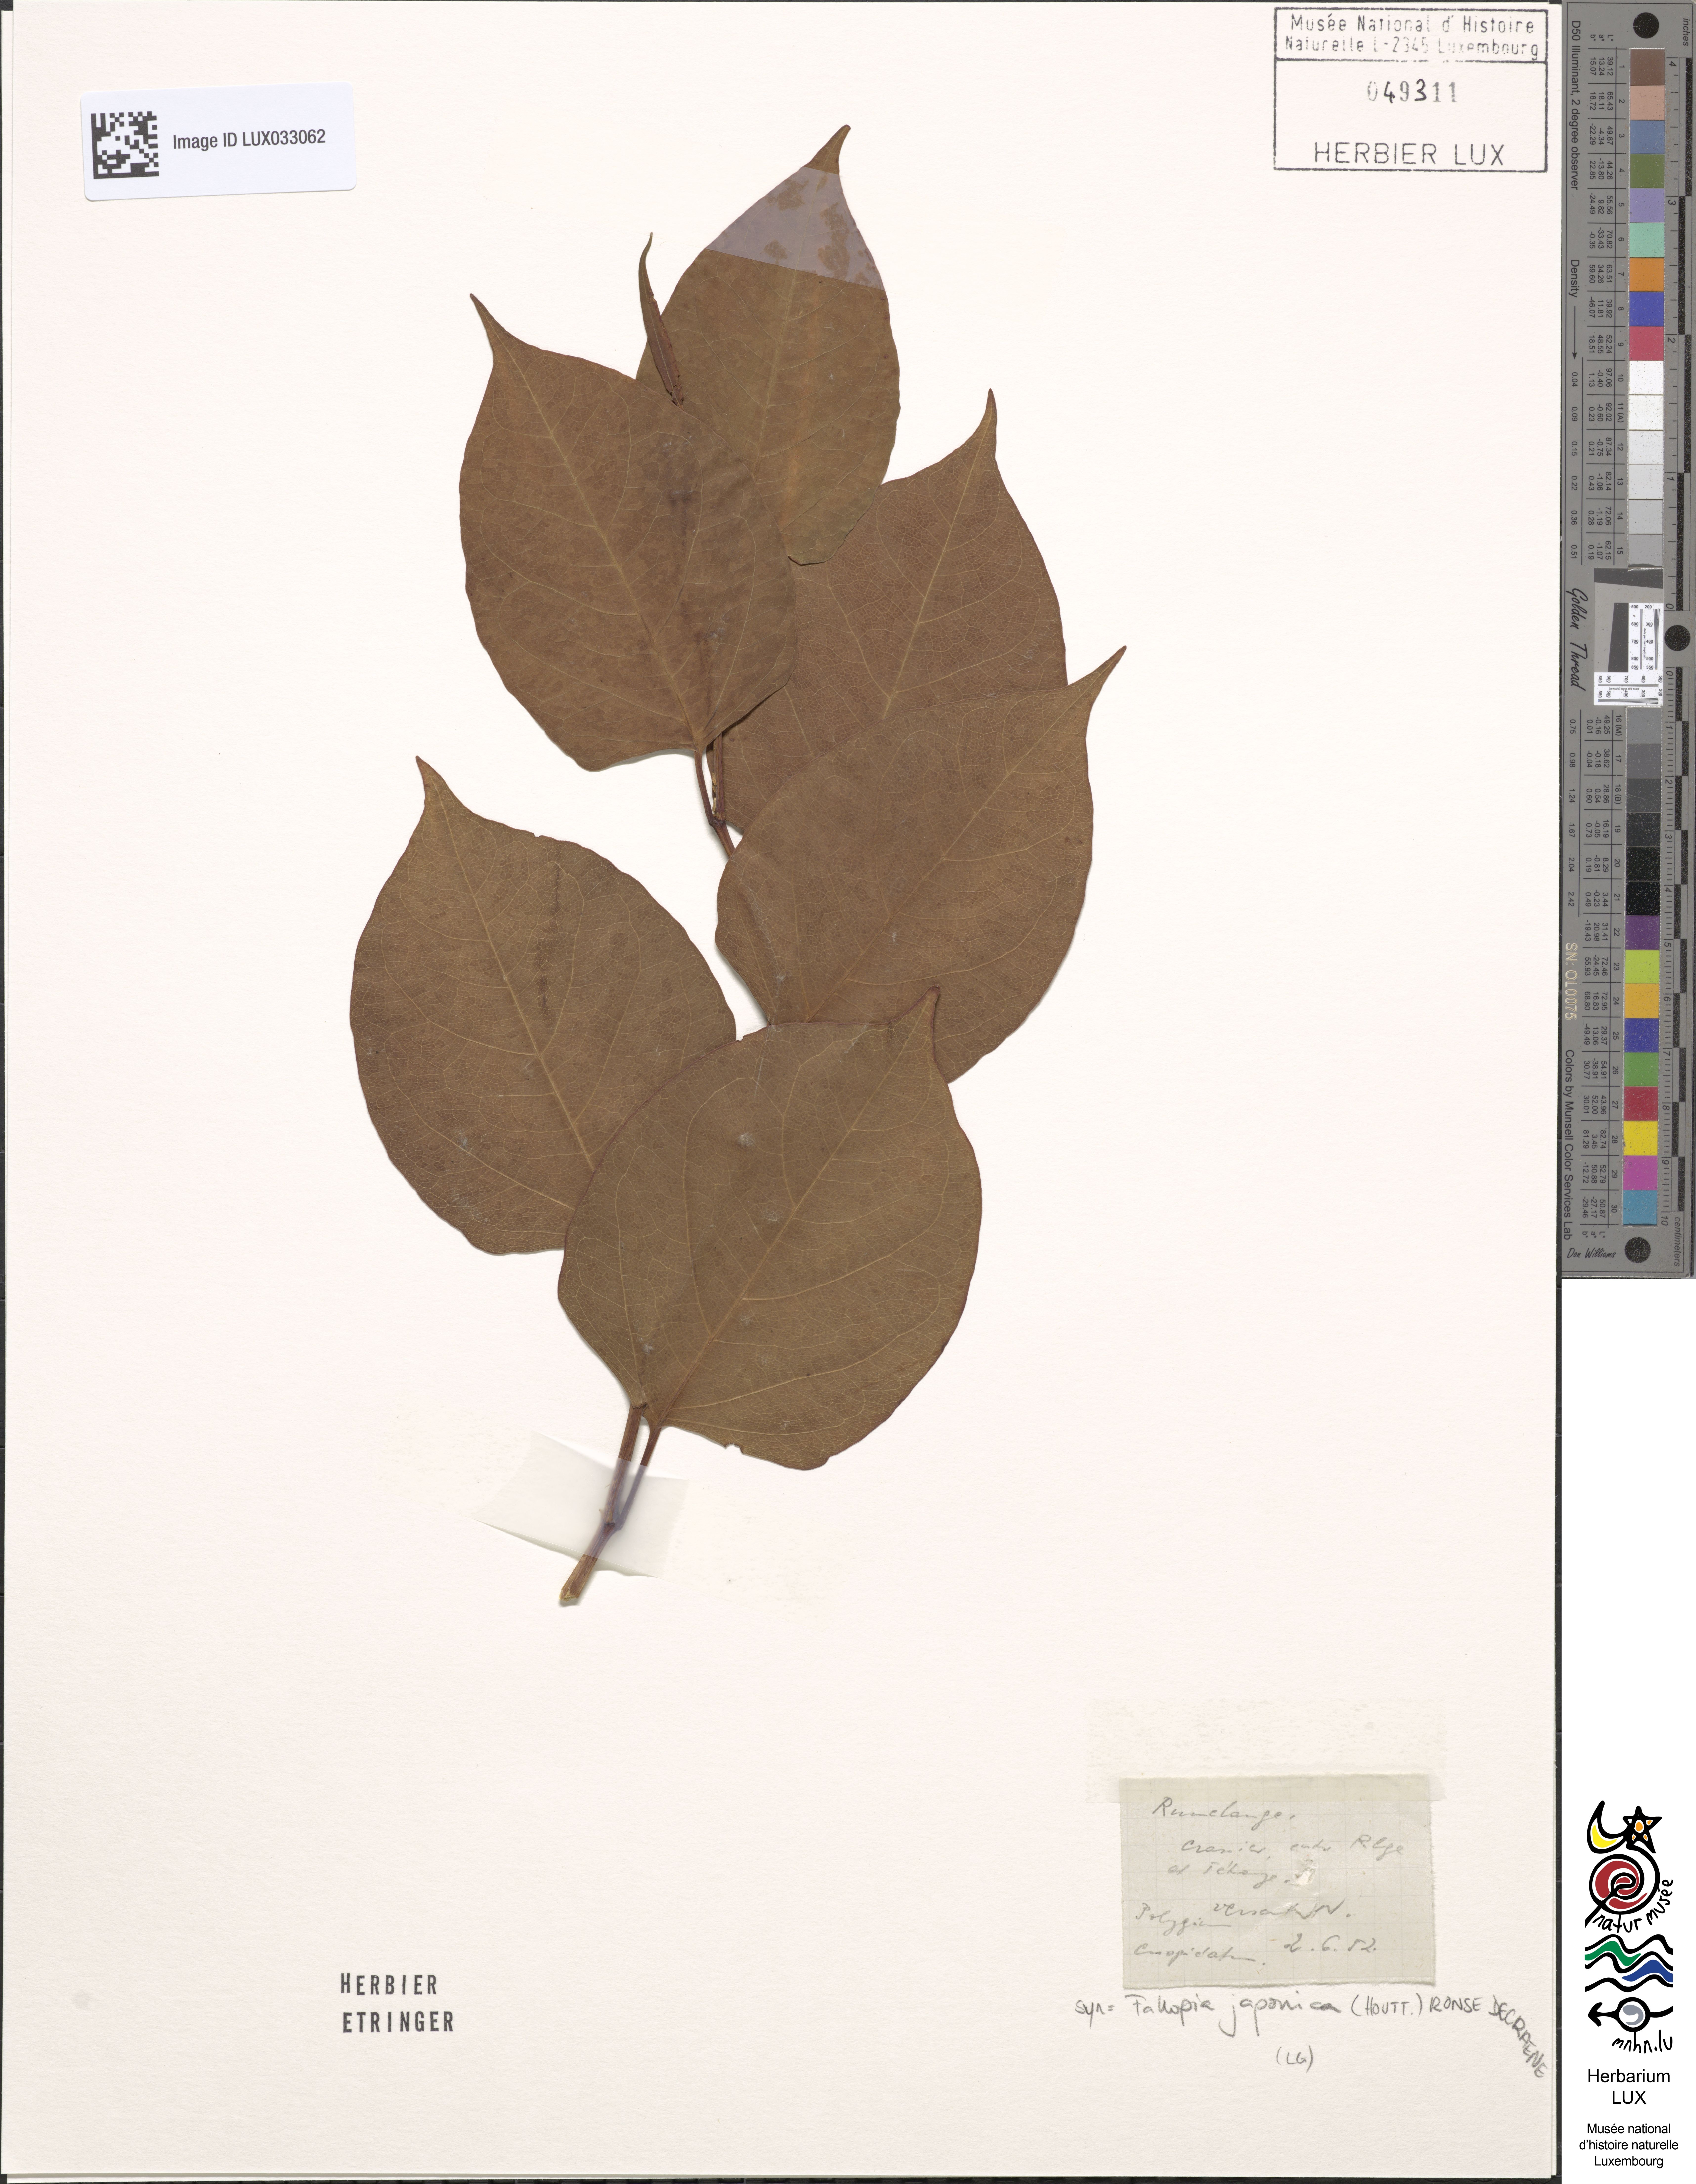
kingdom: Plantae
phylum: Tracheophyta
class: Magnoliopsida
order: Caryophyllales
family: Polygonaceae
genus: Reynoutria
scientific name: Reynoutria japonica
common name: Japanese knotweed
